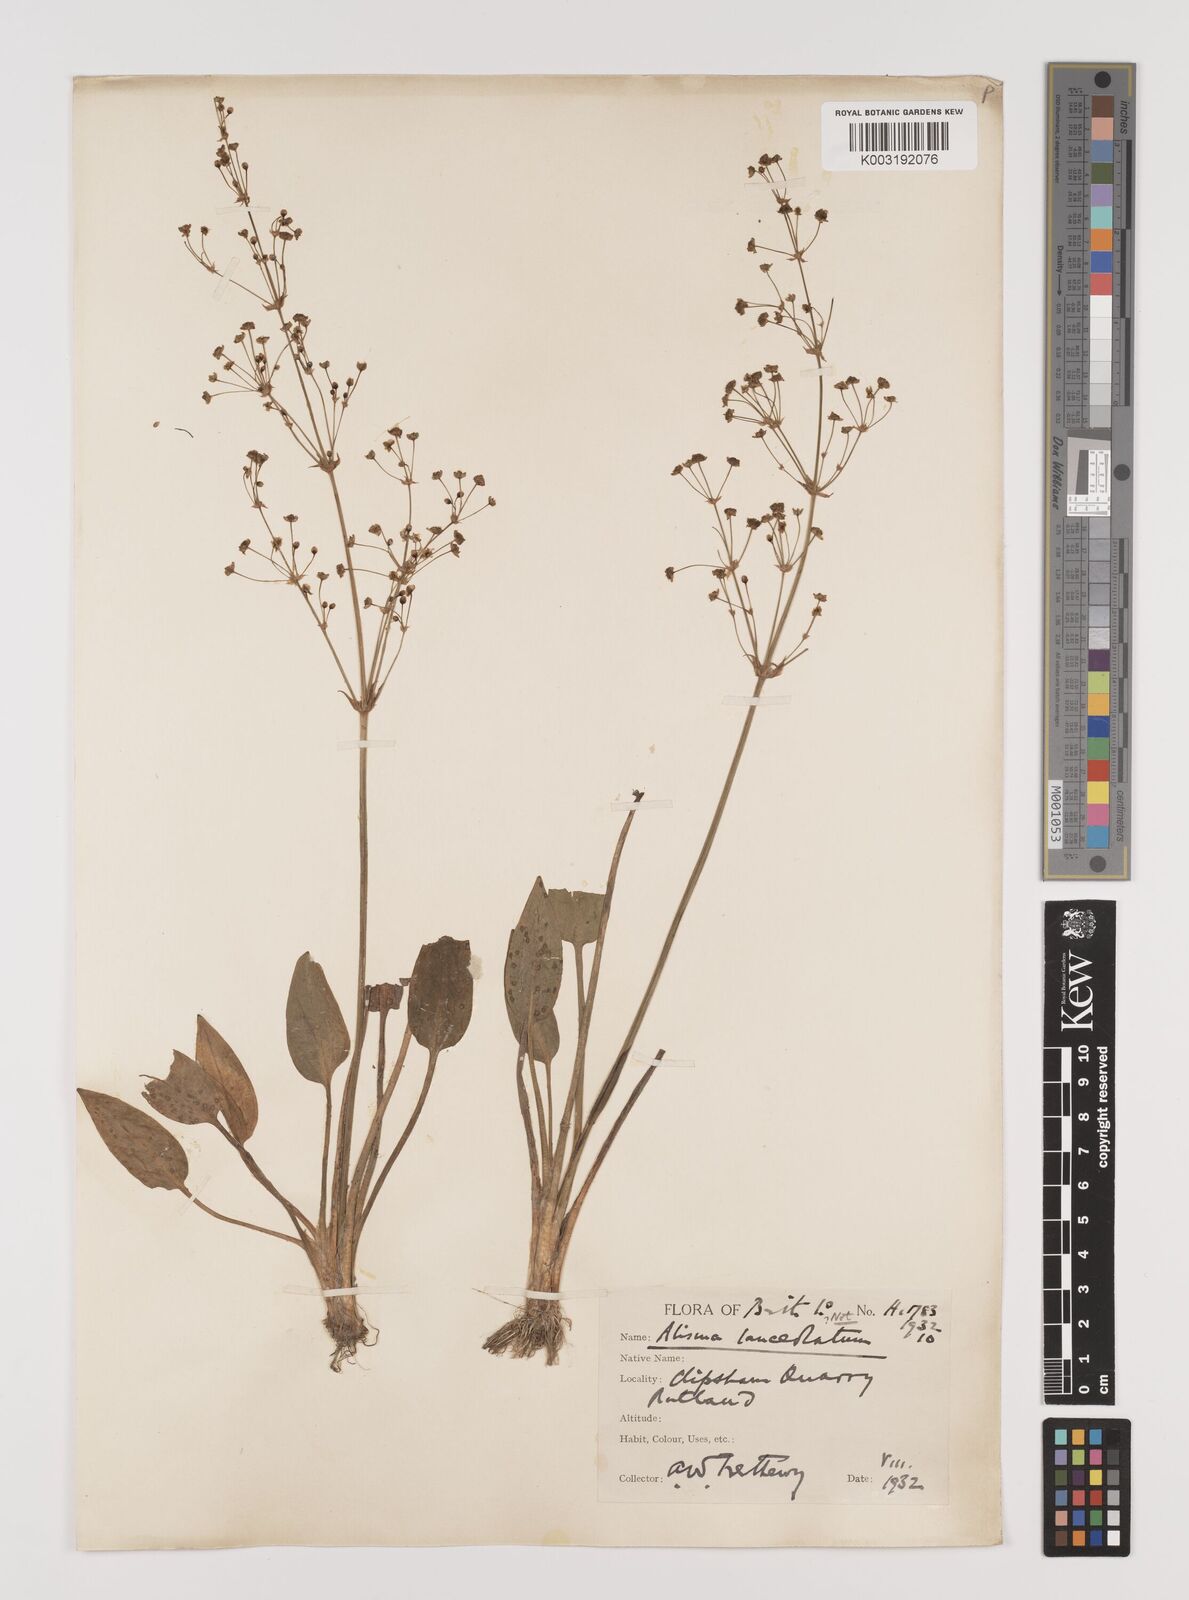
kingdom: Plantae
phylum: Tracheophyta
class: Liliopsida
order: Alismatales
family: Alismataceae
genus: Alisma
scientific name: Alisma plantago-aquatica
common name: Water-plantain
